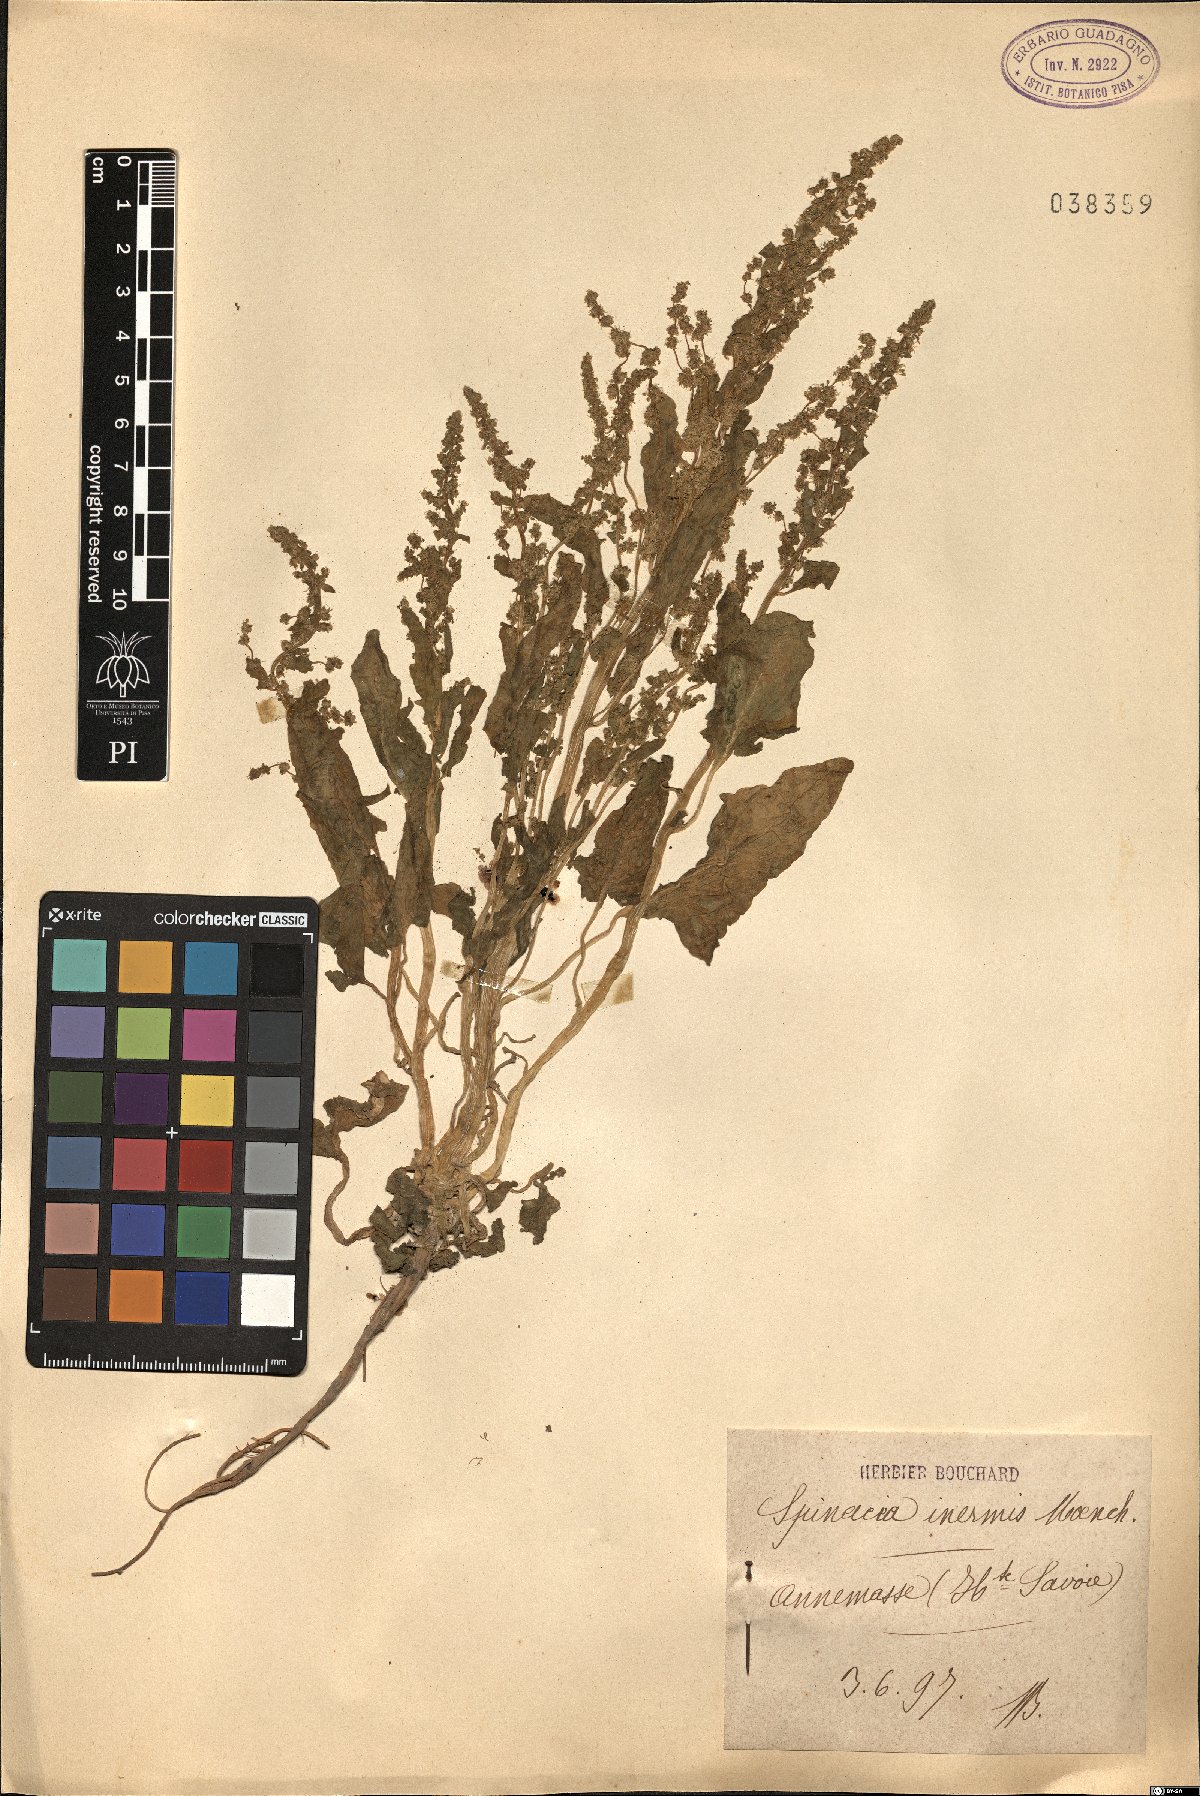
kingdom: Plantae
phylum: Tracheophyta
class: Magnoliopsida
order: Caryophyllales
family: Amaranthaceae
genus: Spinacia
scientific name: Spinacia oleracea
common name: Spinach
